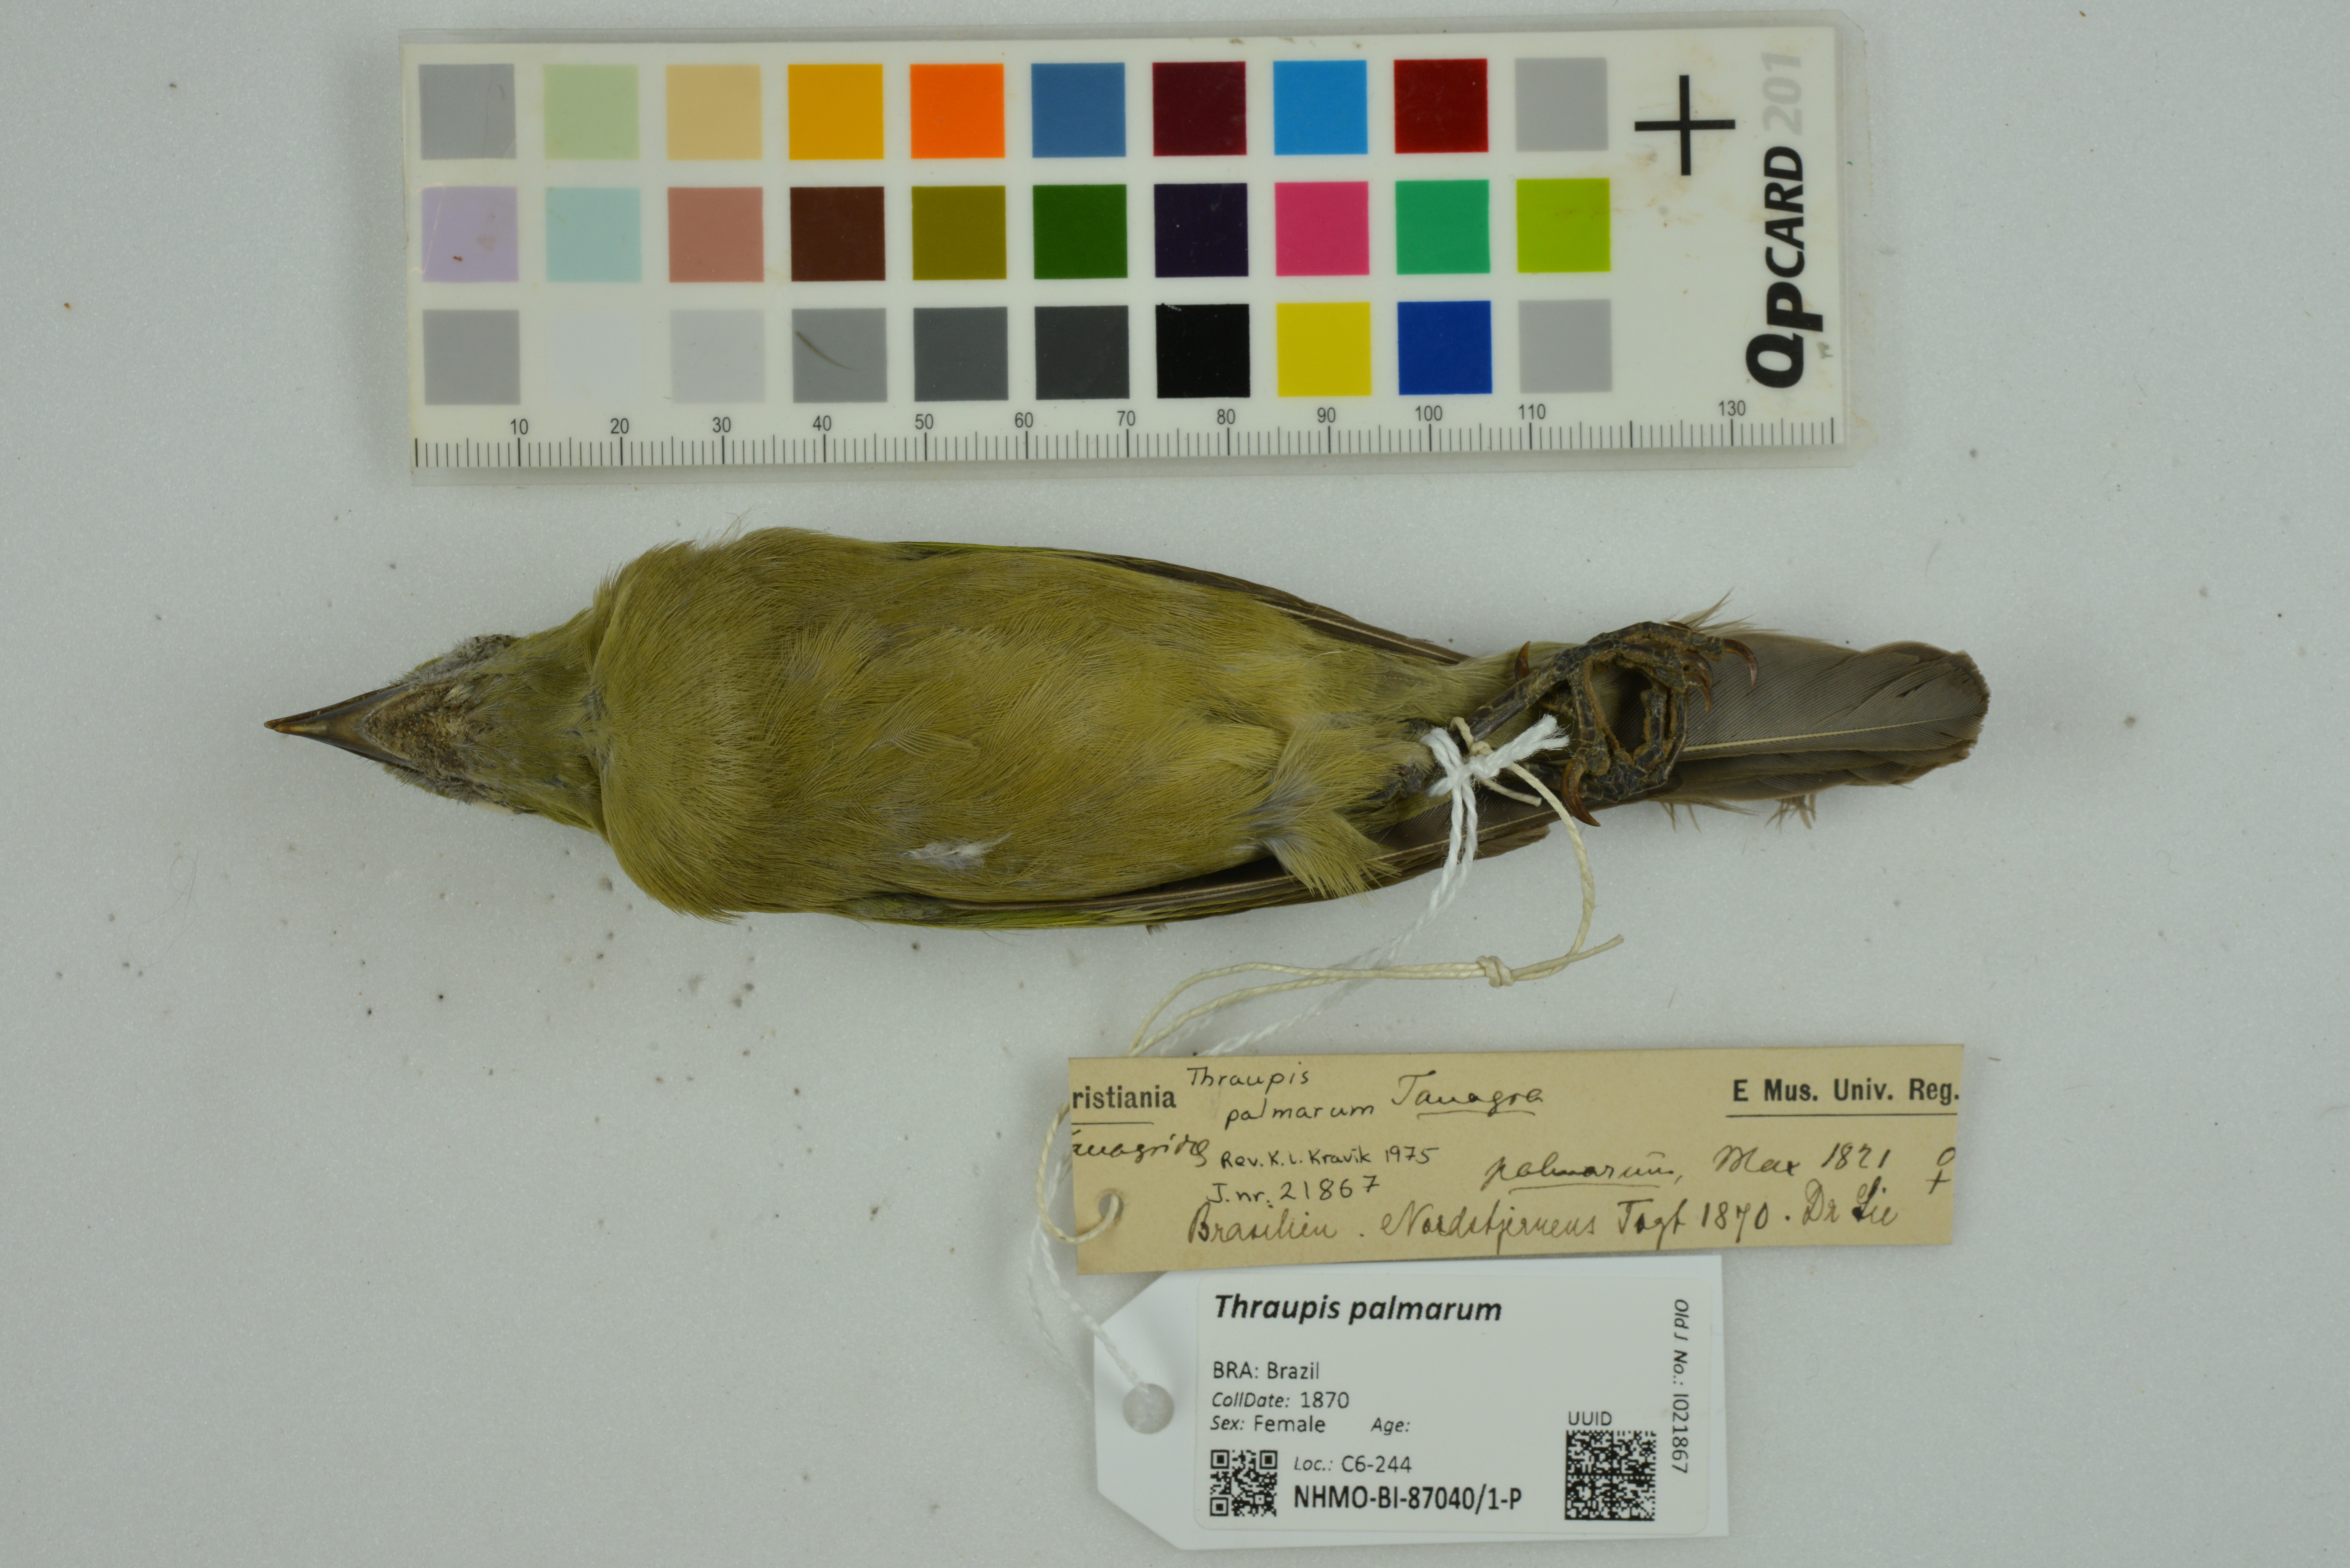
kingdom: Animalia
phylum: Chordata
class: Aves
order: Passeriformes
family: Thraupidae
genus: Thraupis
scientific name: Thraupis palmarum
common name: Palm tanager
